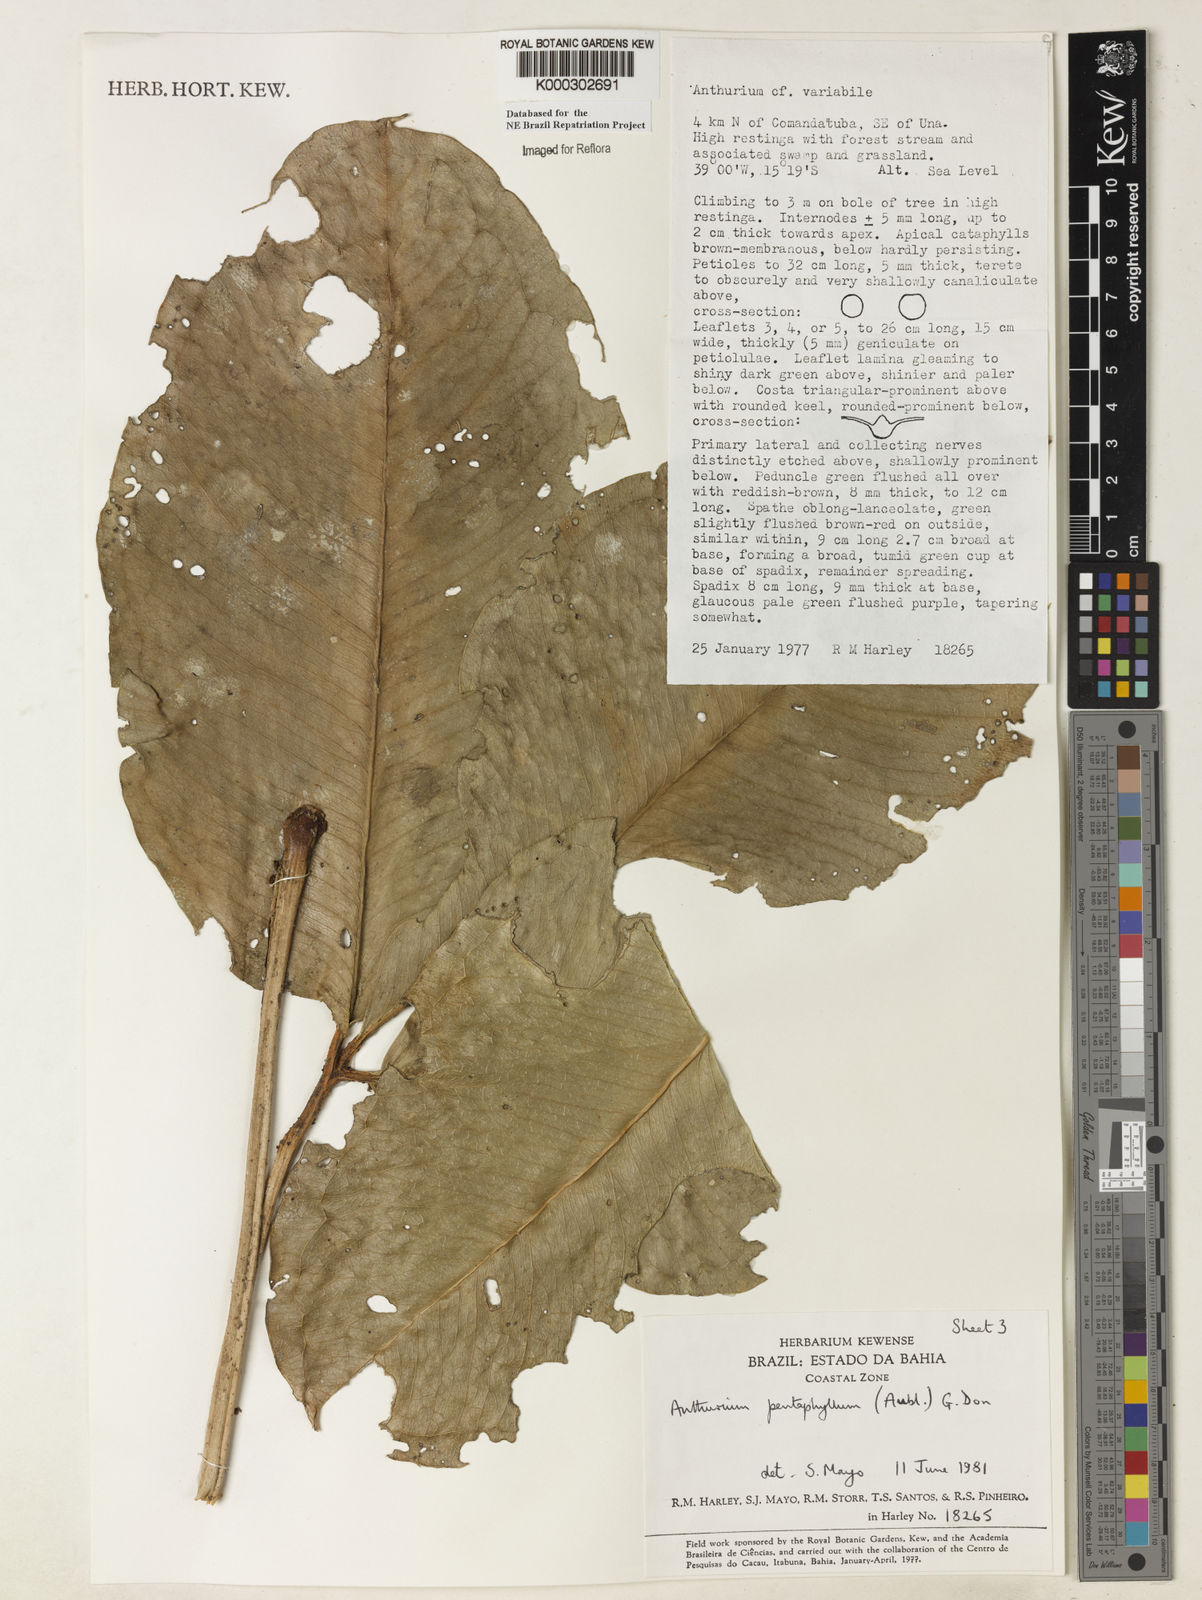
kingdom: Plantae
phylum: Tracheophyta
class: Liliopsida
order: Alismatales
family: Araceae
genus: Anthurium
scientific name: Anthurium pentaphyllum
